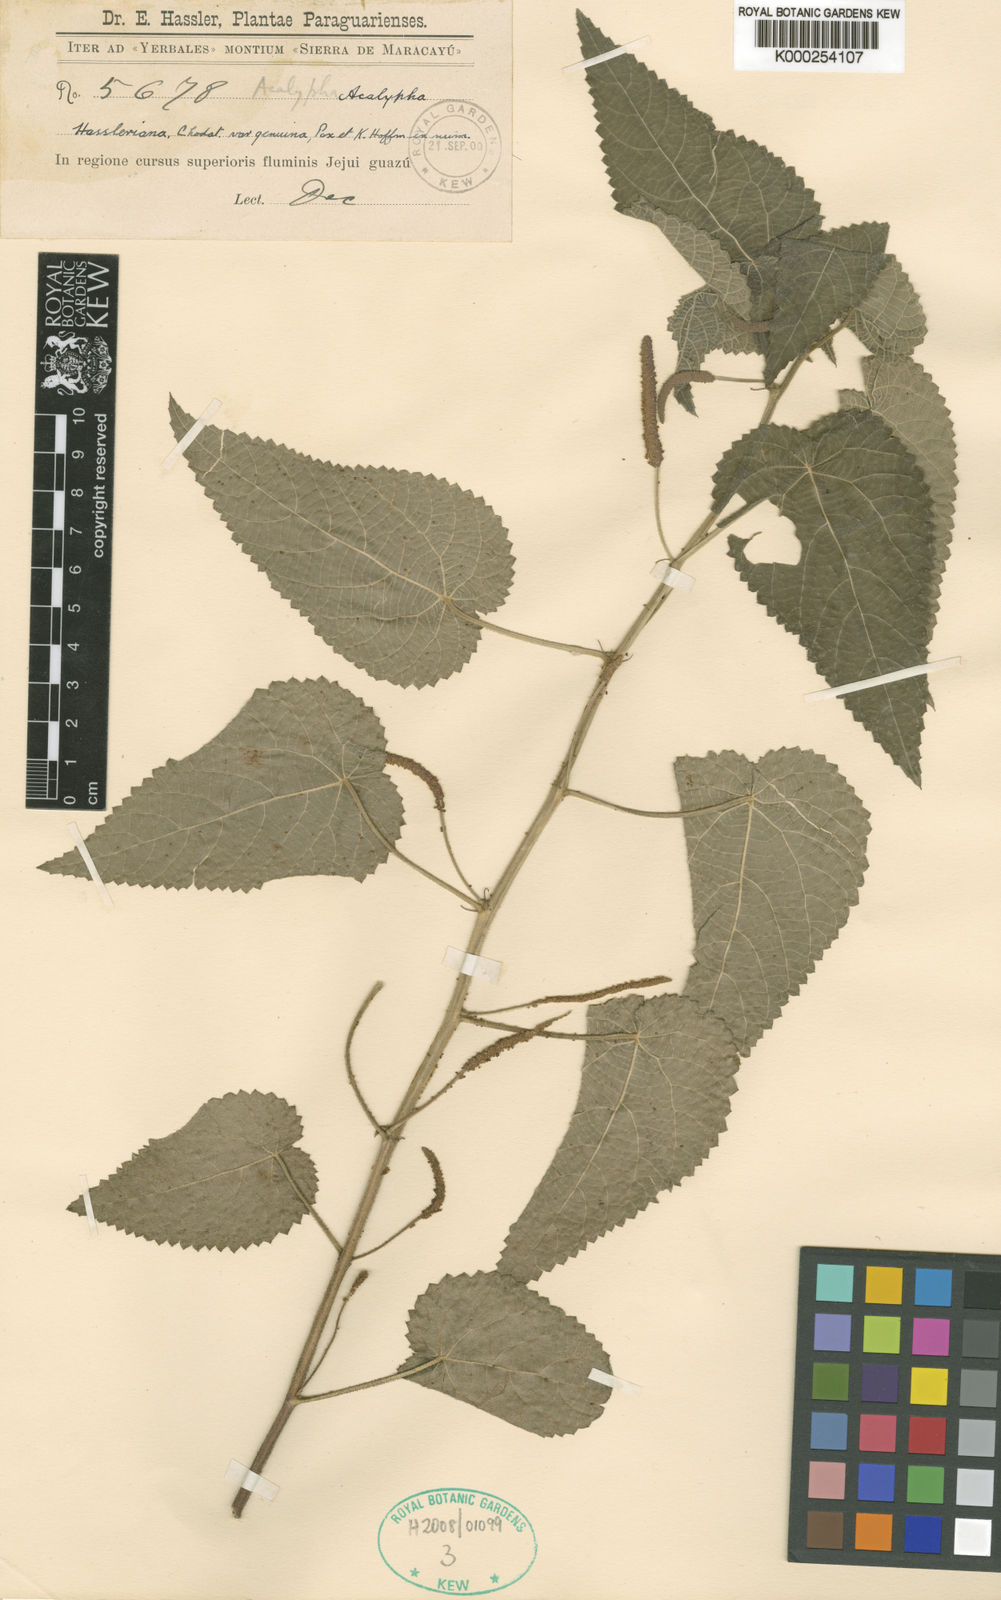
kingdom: Plantae
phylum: Tracheophyta
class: Magnoliopsida
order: Malpighiales
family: Euphorbiaceae
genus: Acalypha
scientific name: Acalypha hassleriana
